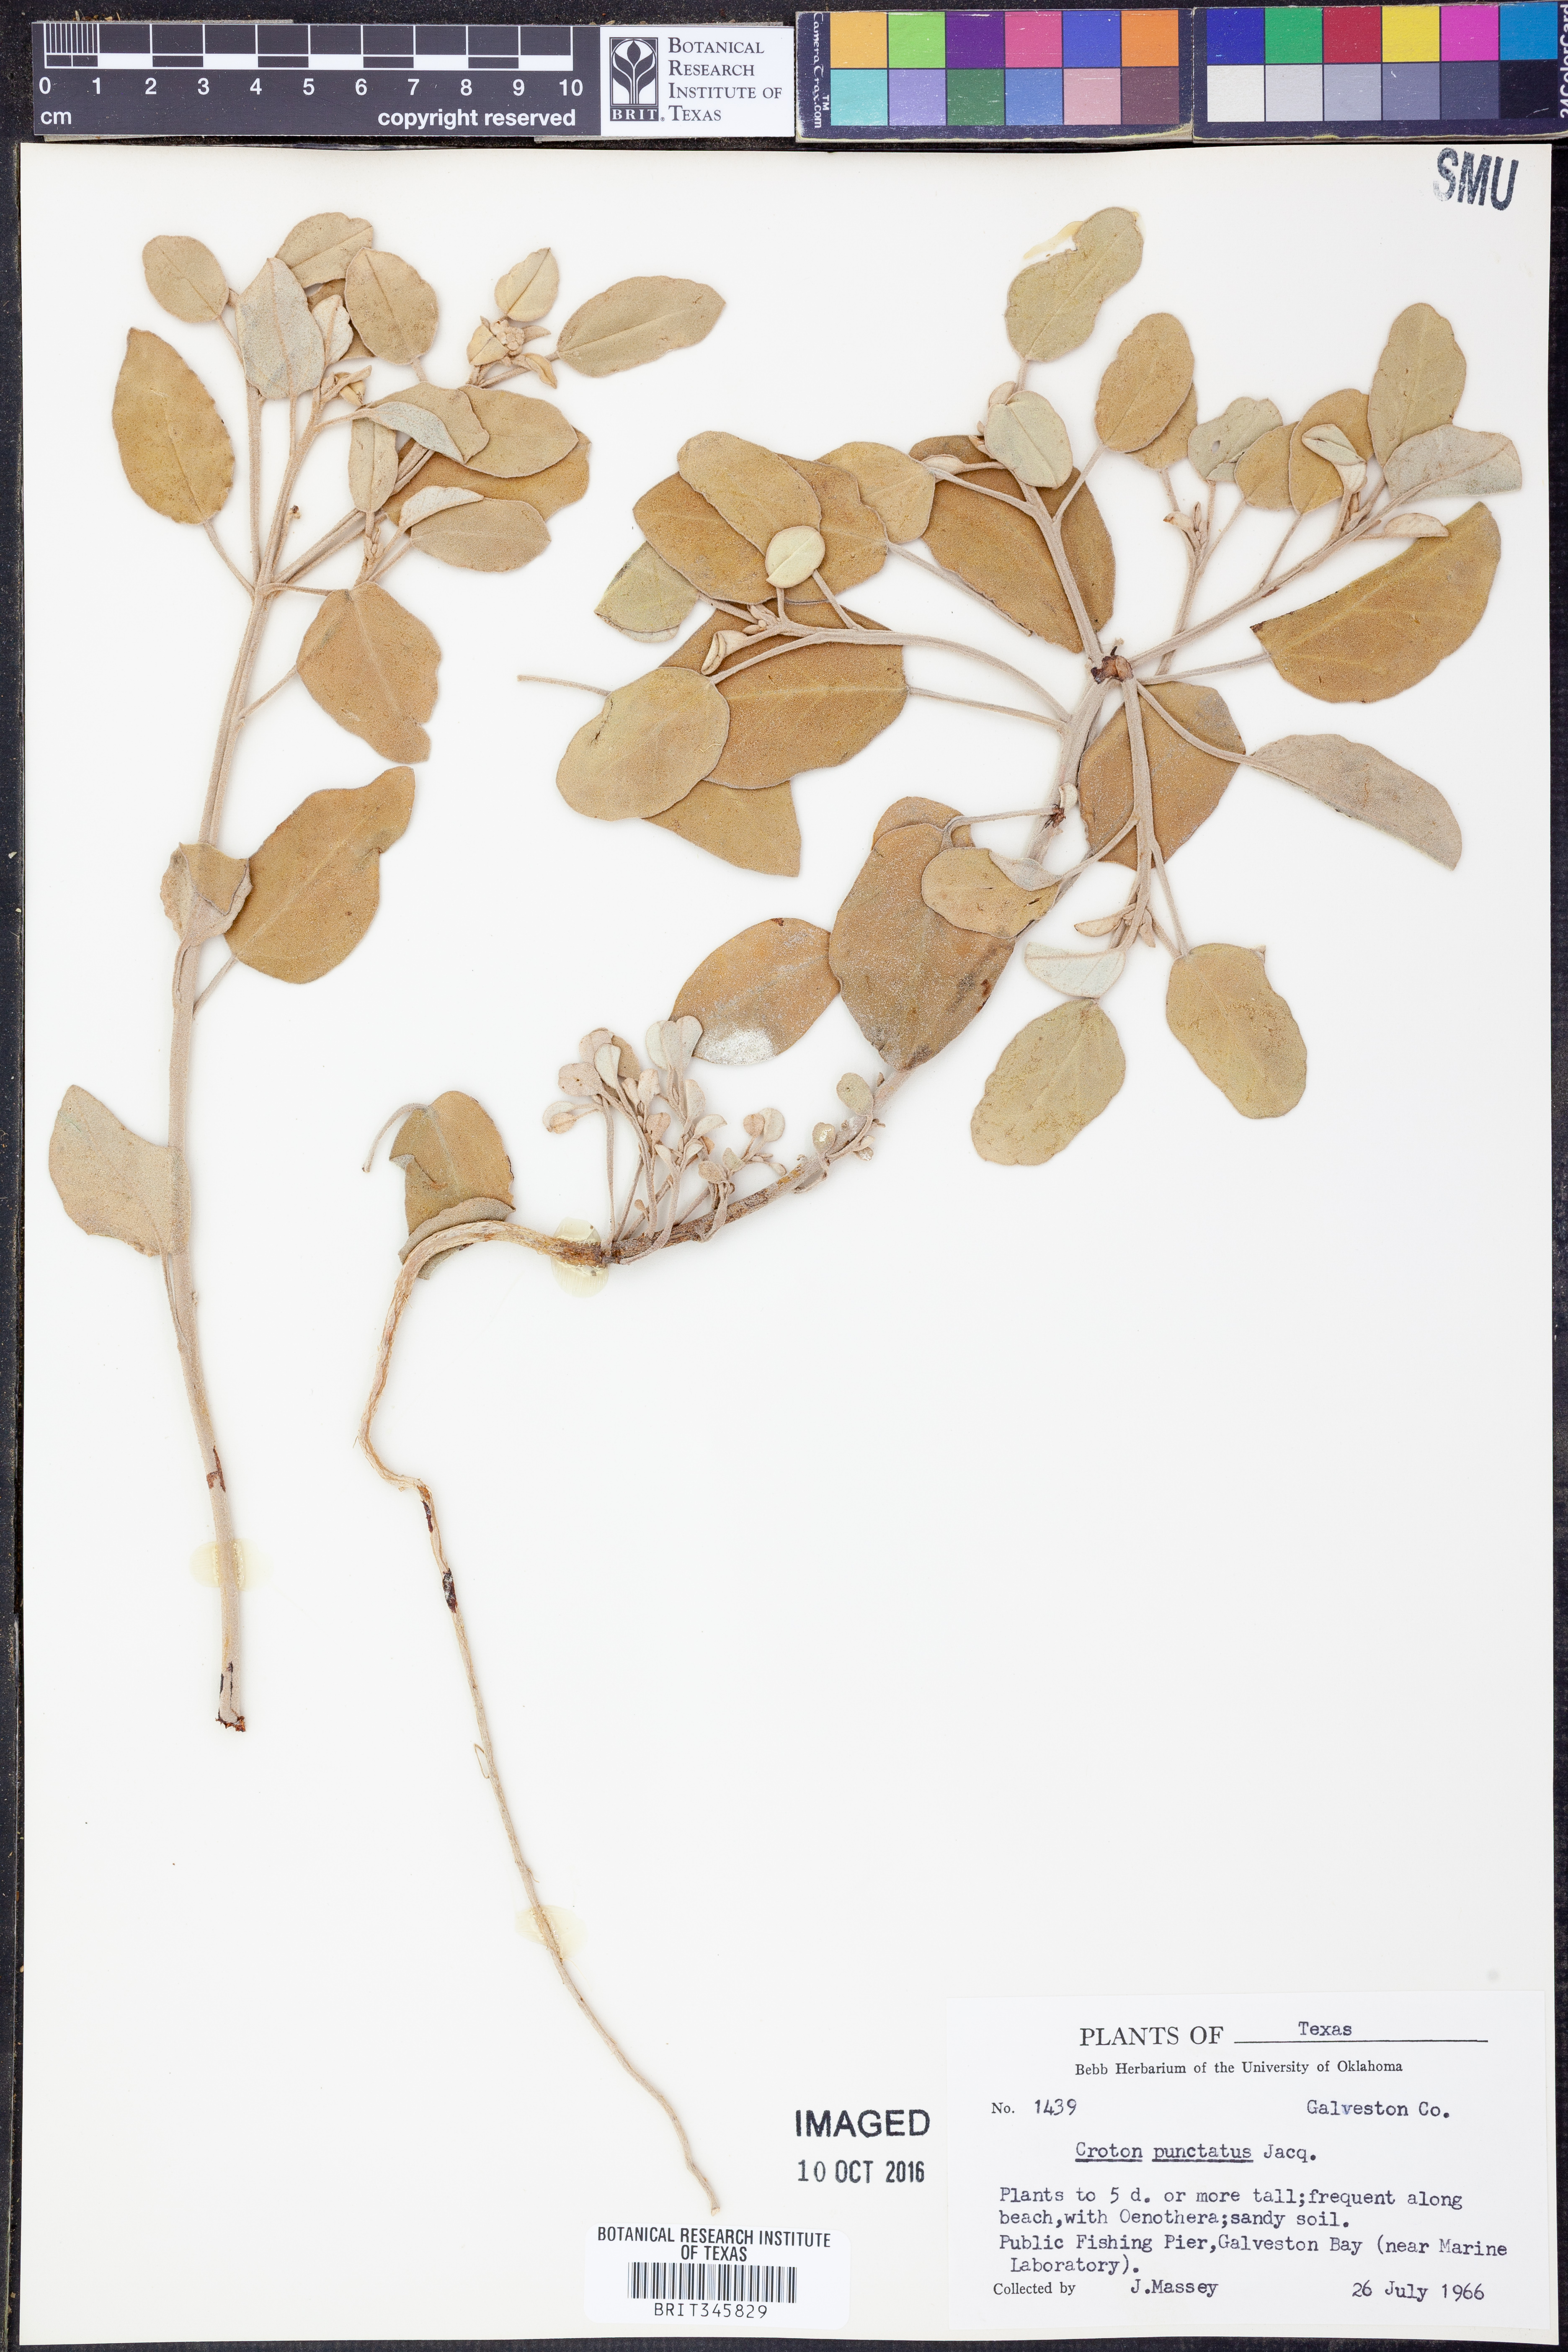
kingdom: Plantae
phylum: Tracheophyta
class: Magnoliopsida
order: Malpighiales
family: Euphorbiaceae
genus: Croton
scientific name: Croton punctatus
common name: Beach-tea
